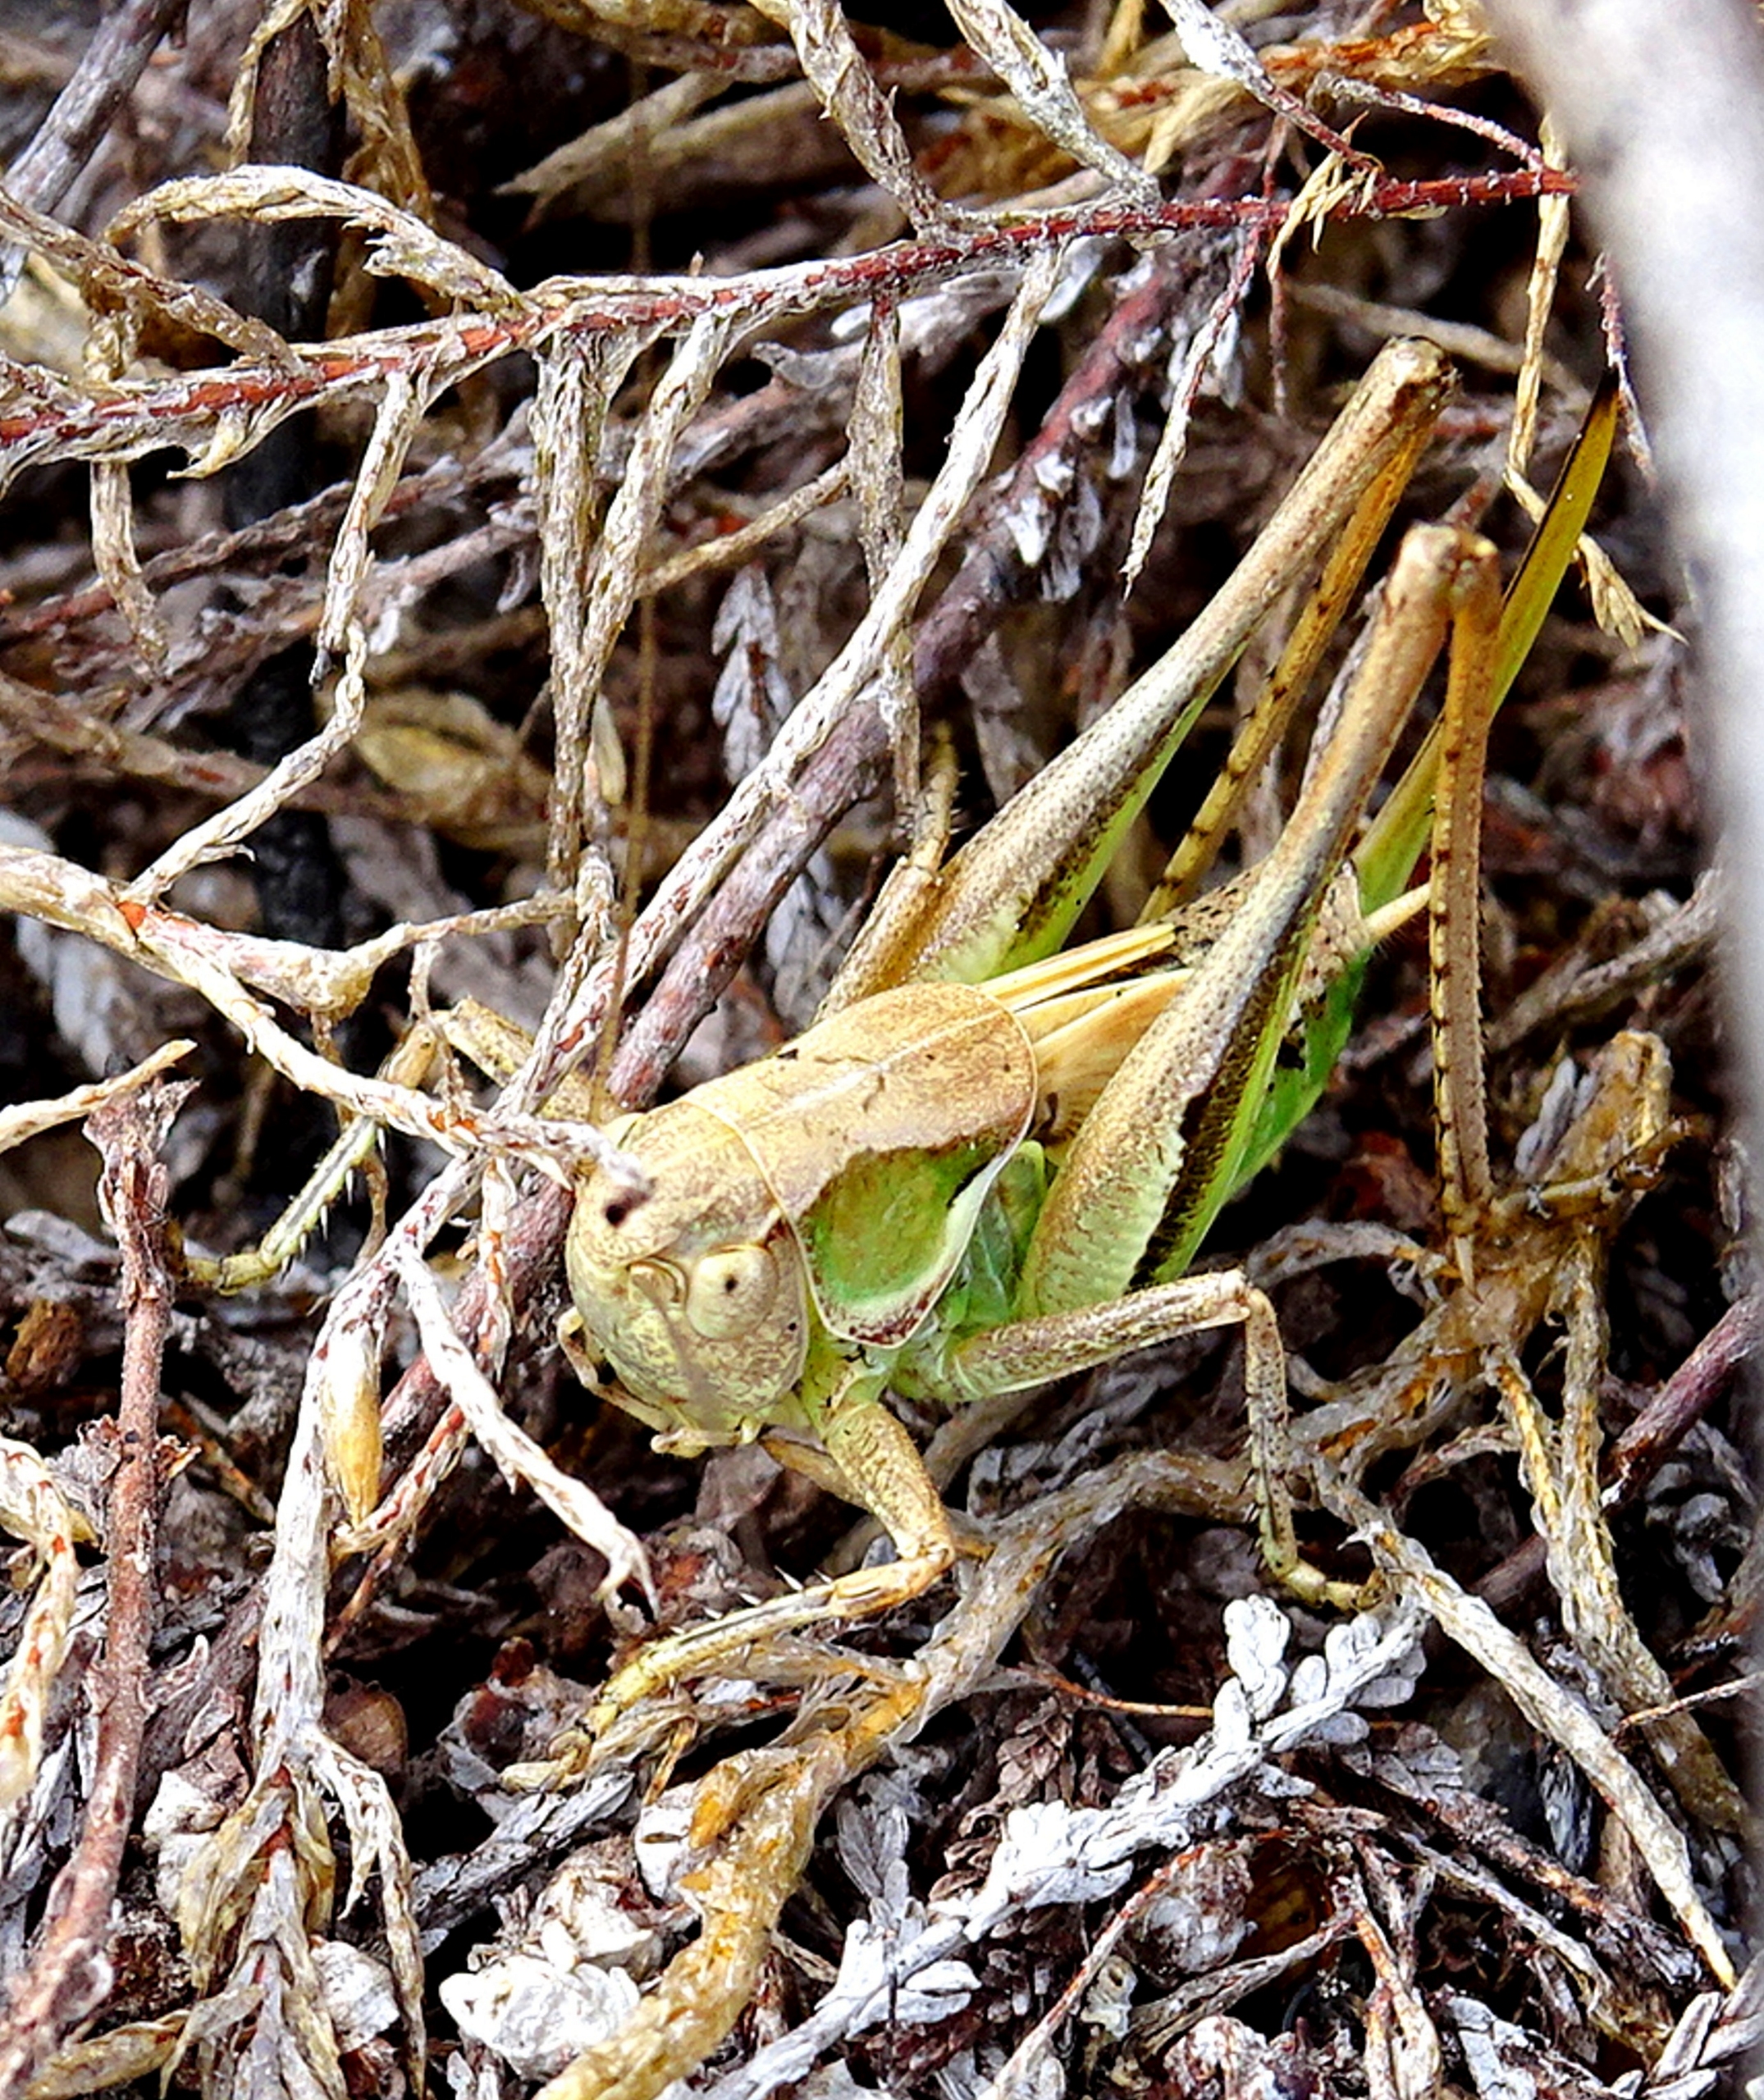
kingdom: Animalia
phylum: Arthropoda
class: Insecta
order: Orthoptera
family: Tettigoniidae
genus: Platycleis
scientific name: Platycleis albopunctata
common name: Sandgræshoppe
